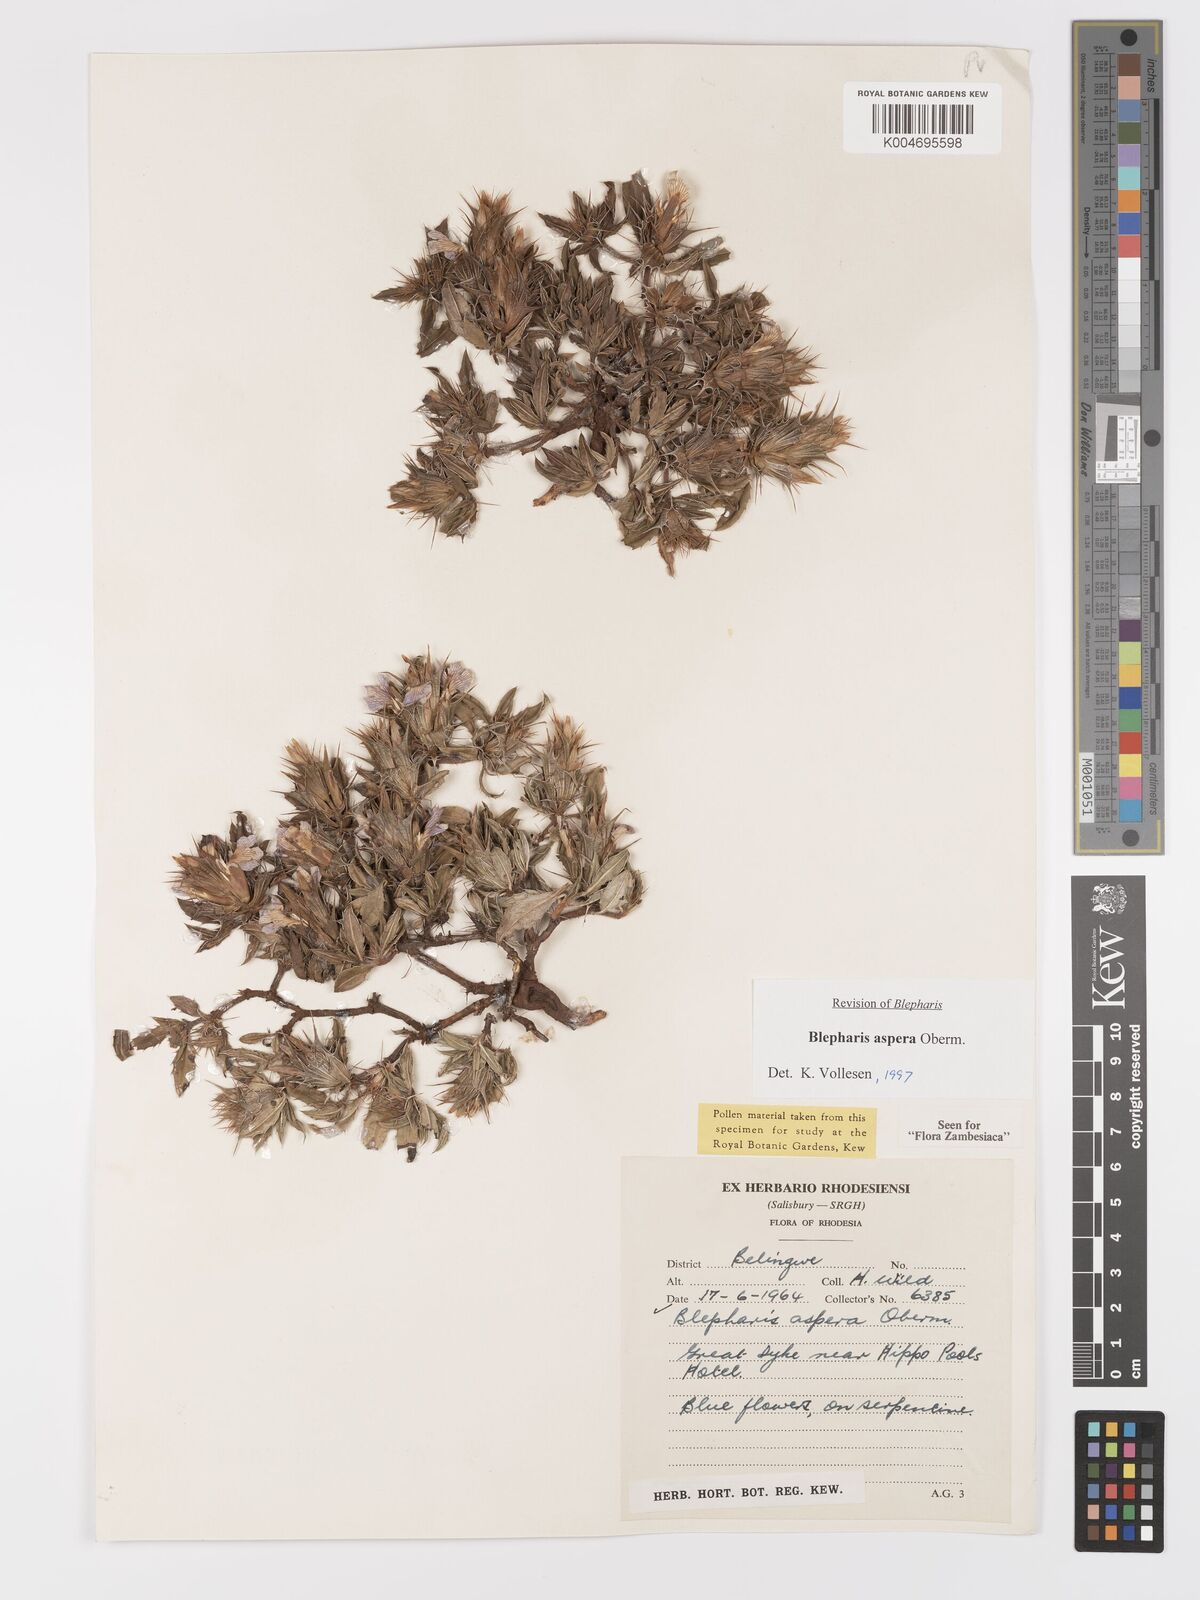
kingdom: Plantae
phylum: Tracheophyta
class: Magnoliopsida
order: Lamiales
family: Acanthaceae
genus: Blepharis
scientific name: Blepharis aspera
